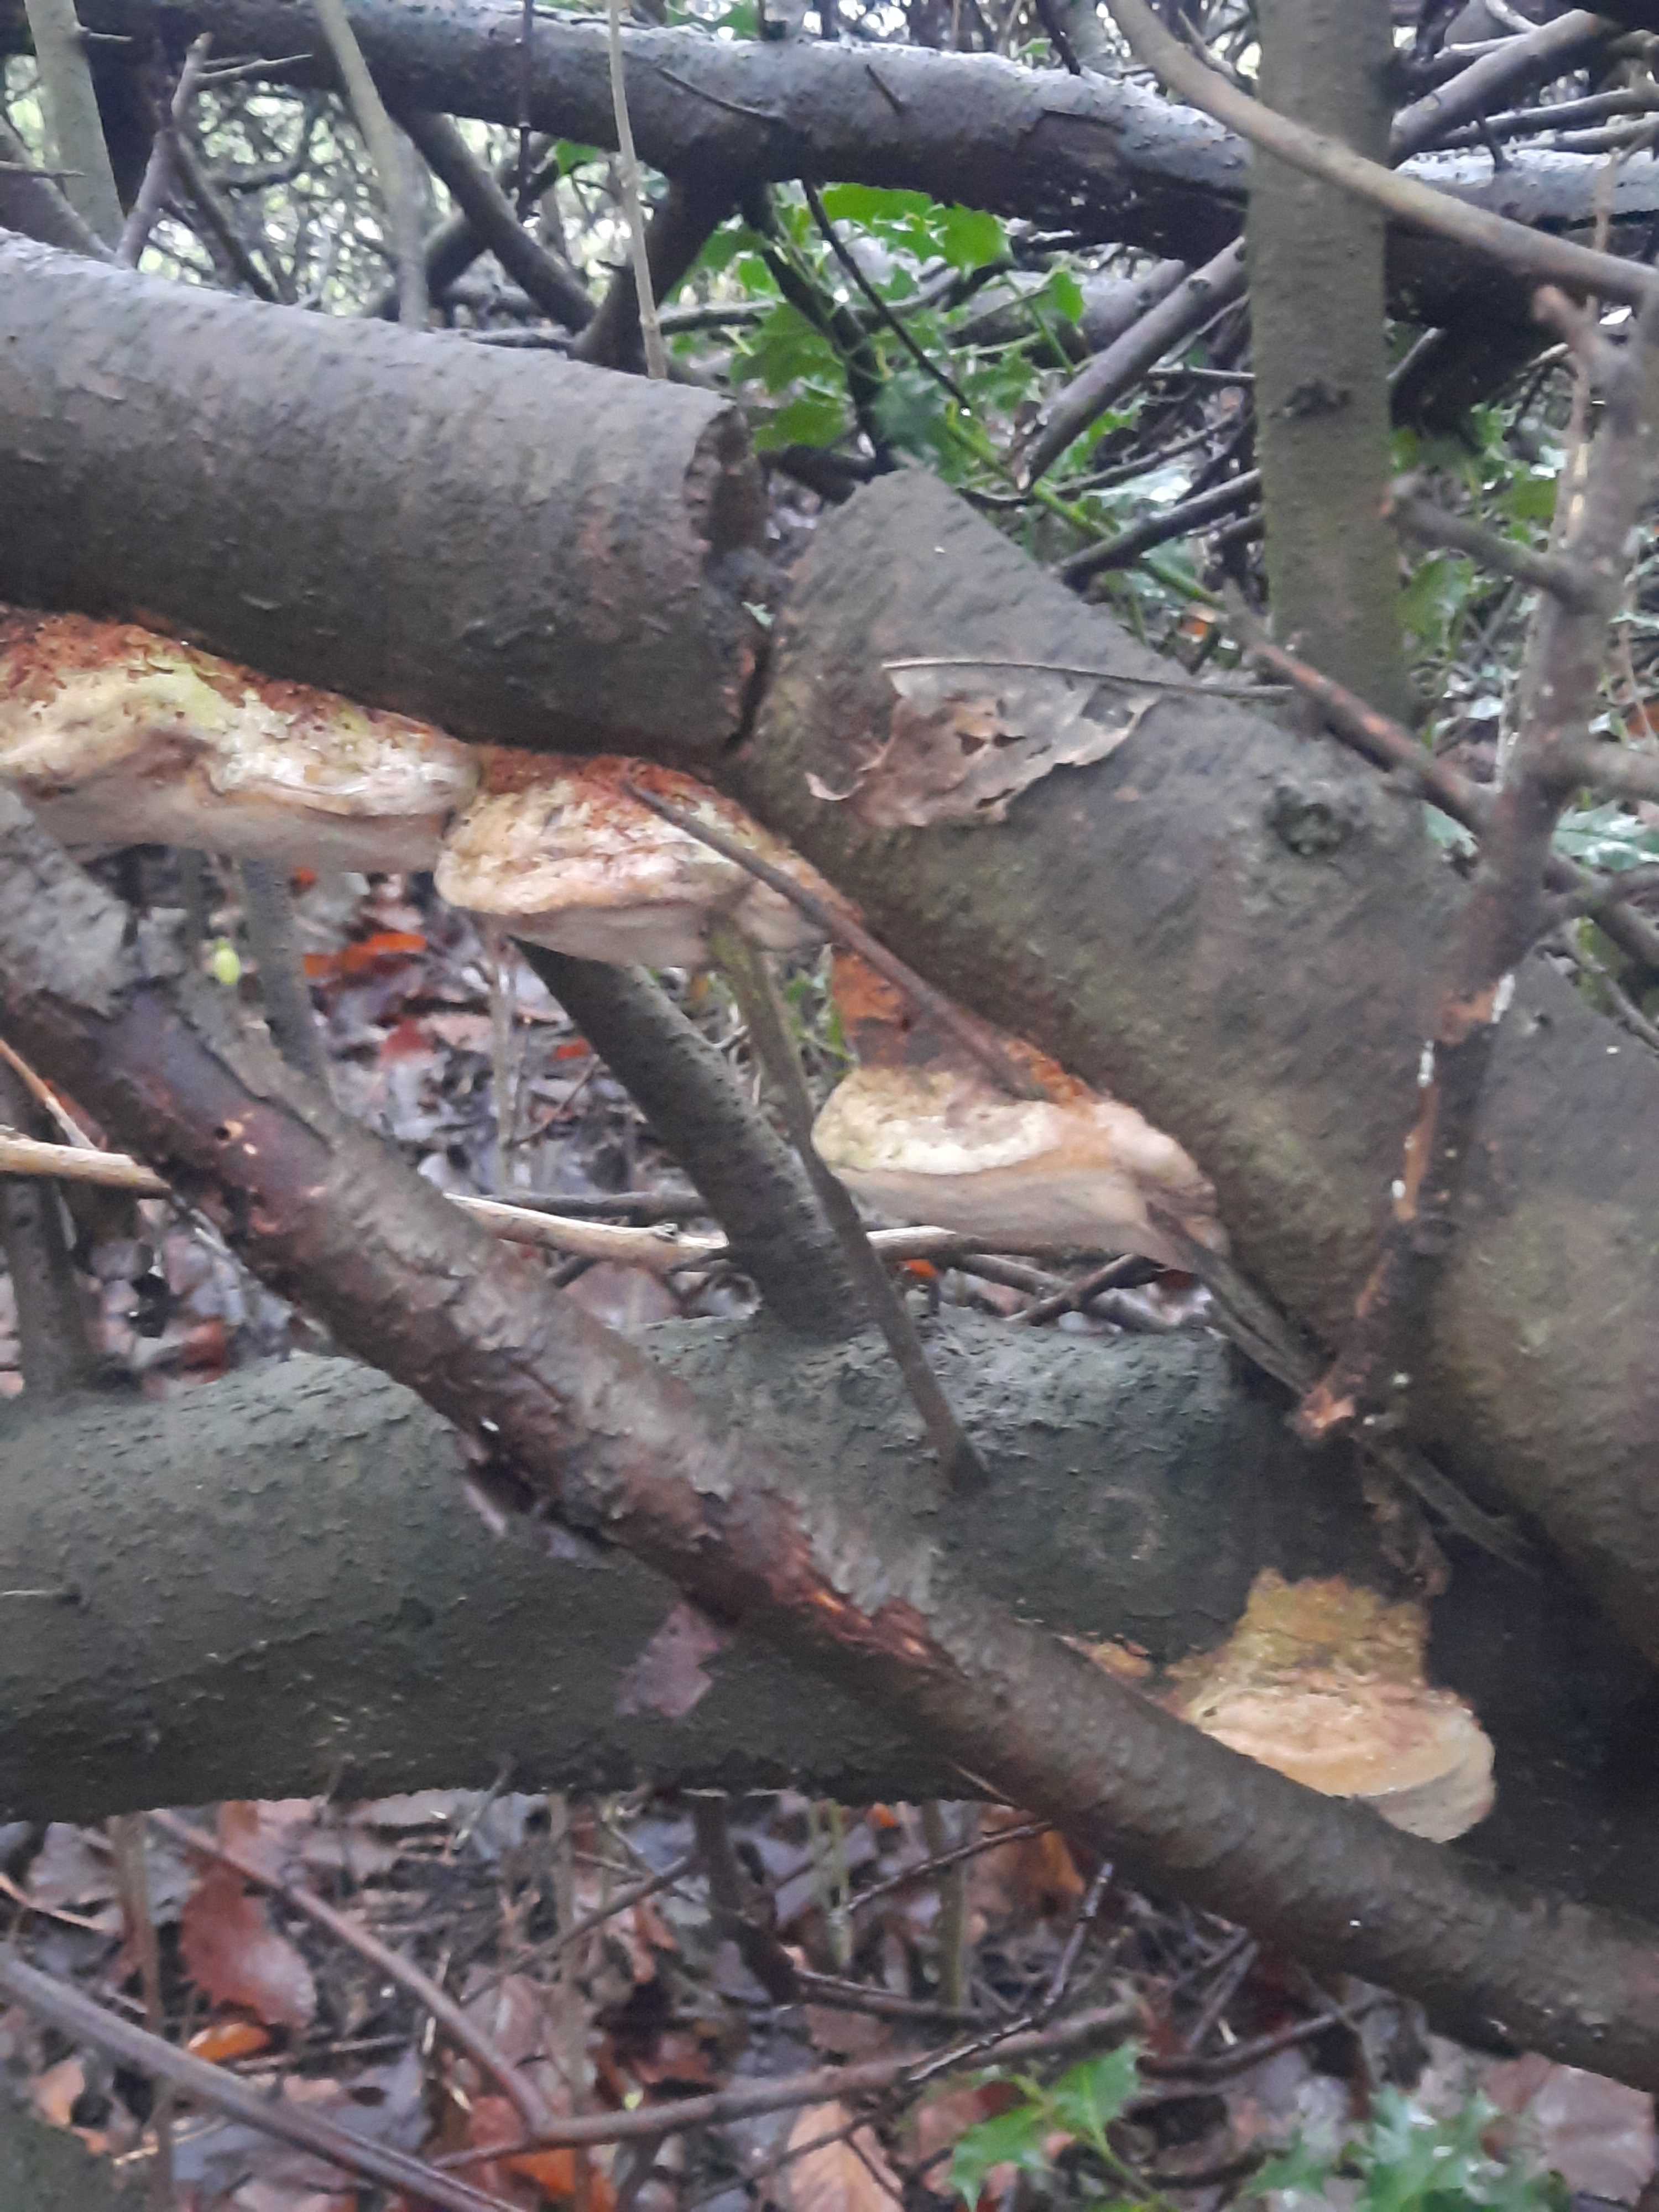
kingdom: Fungi
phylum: Basidiomycota
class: Agaricomycetes
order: Hymenochaetales
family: Hymenochaetaceae
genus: Phellinus
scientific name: Phellinus pomaceus
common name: blomme-ildporesvamp
